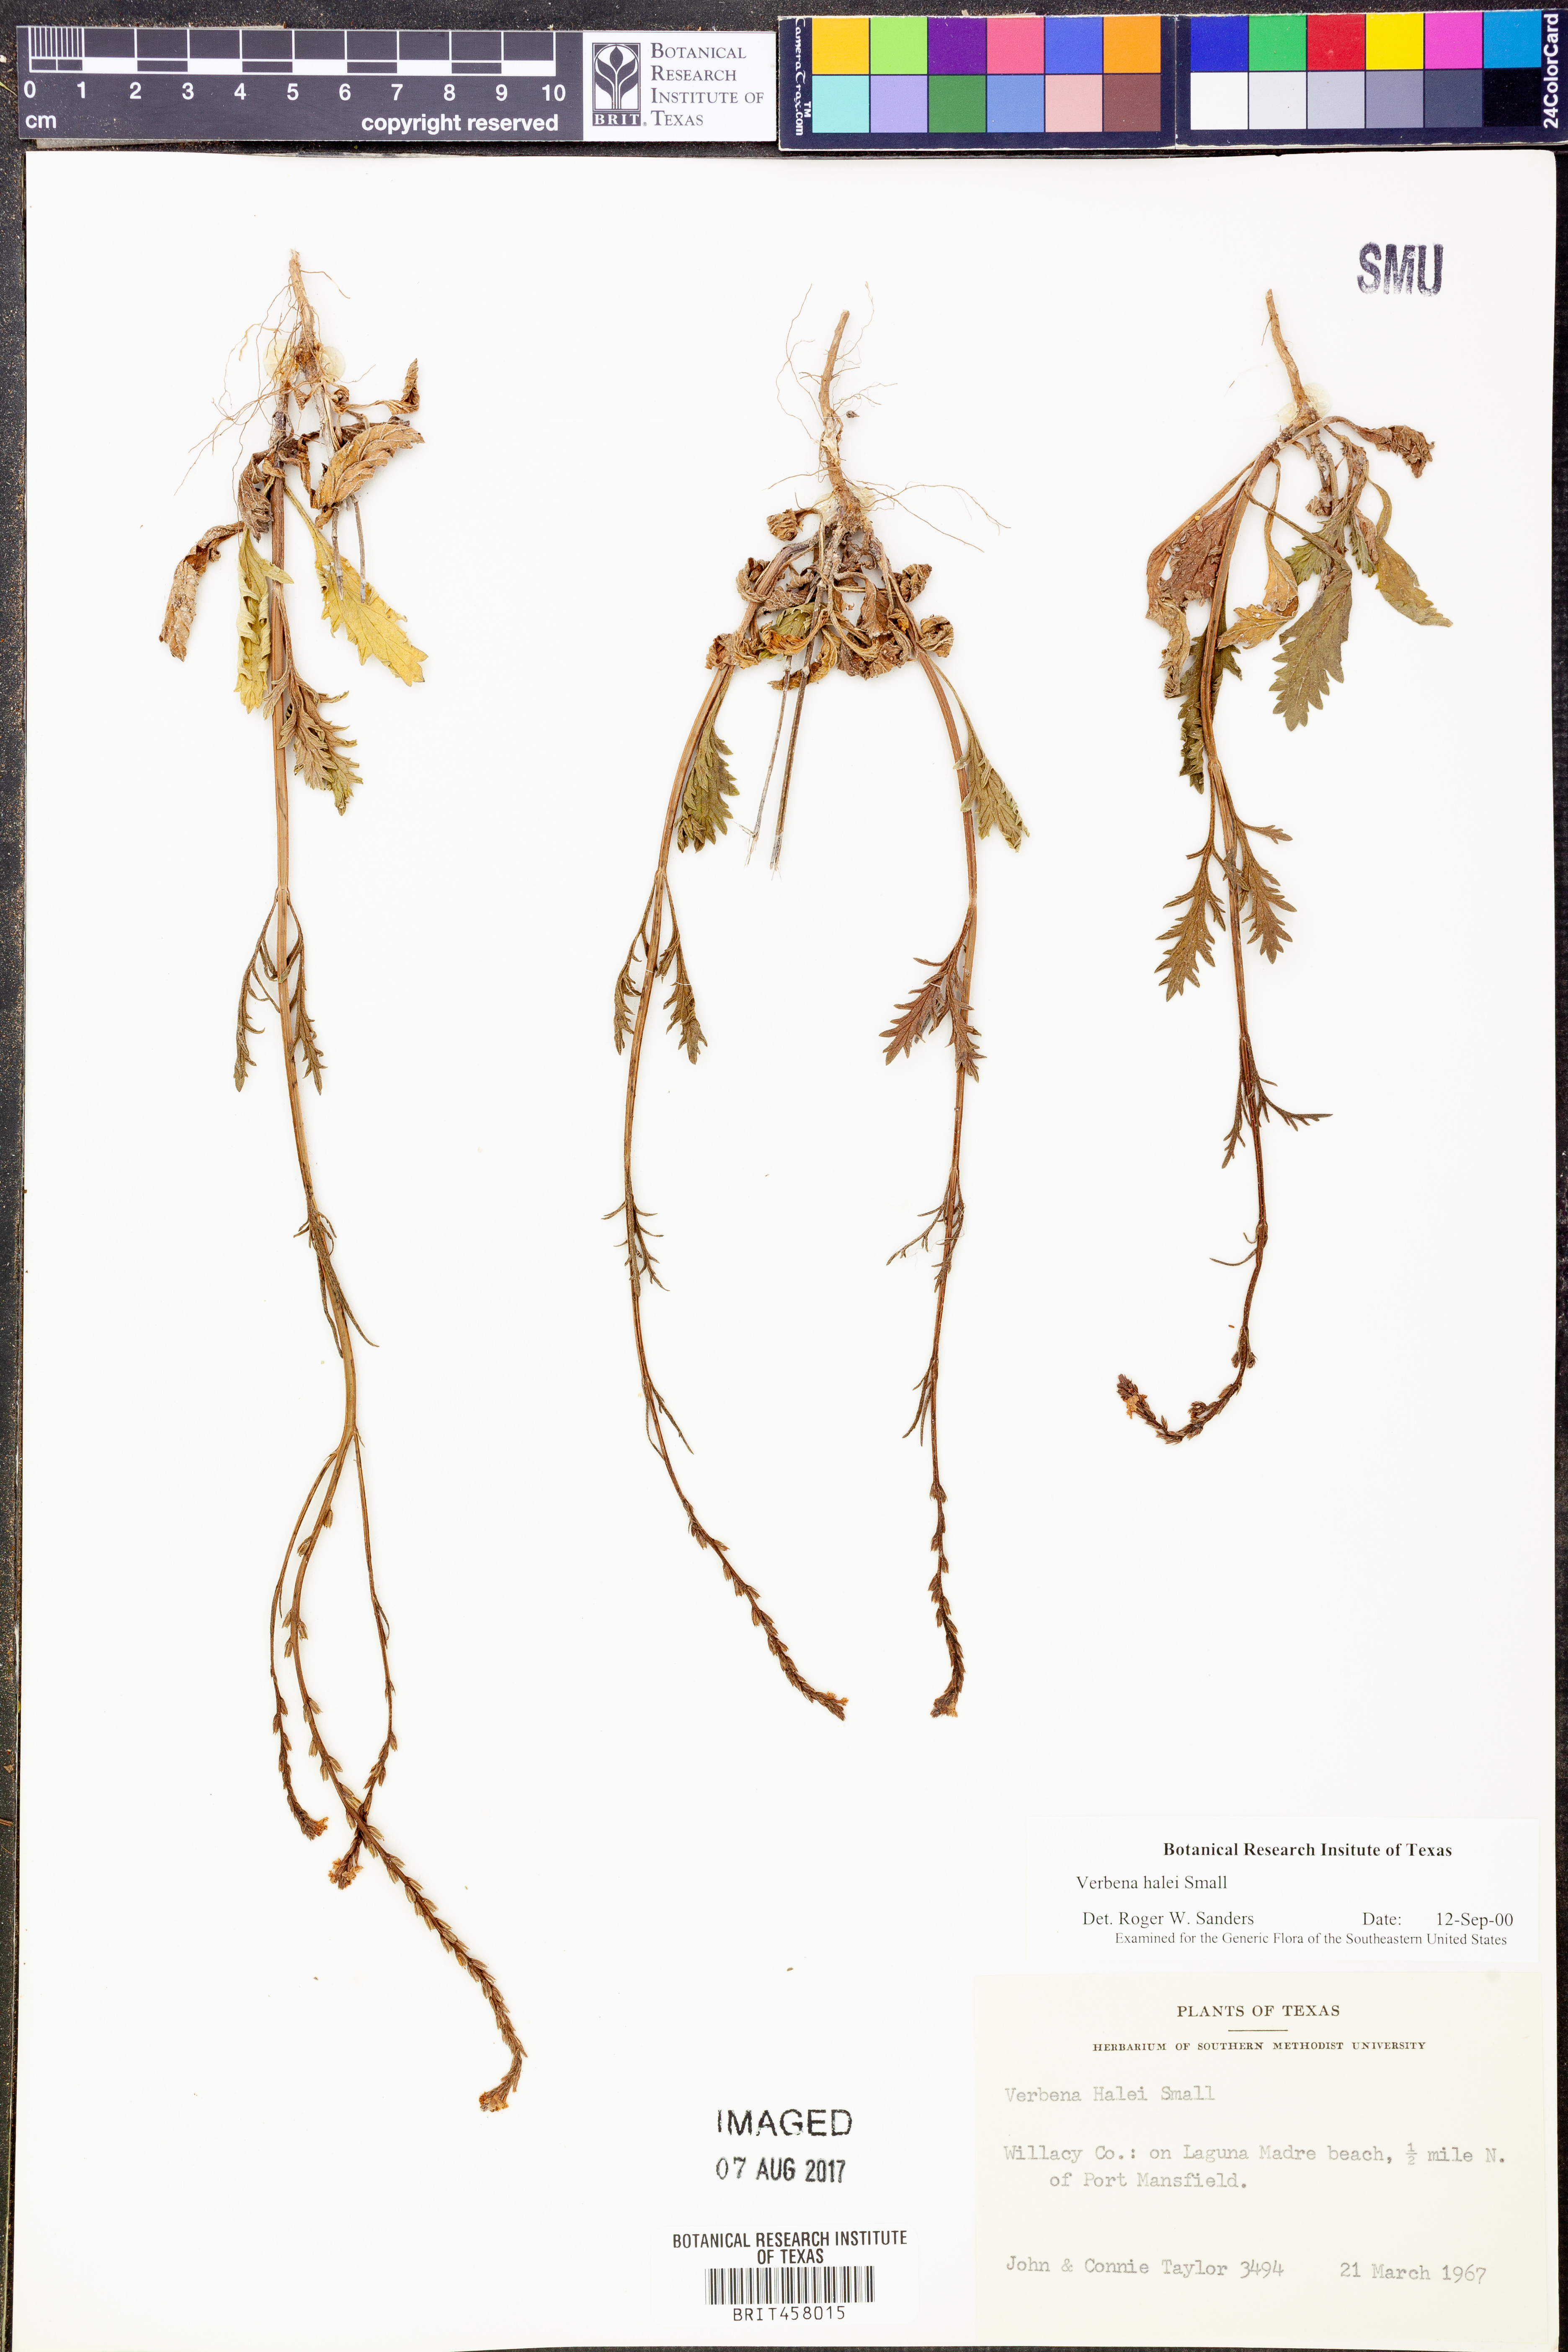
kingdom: Plantae
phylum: Tracheophyta
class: Magnoliopsida
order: Lamiales
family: Verbenaceae
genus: Verbena
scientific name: Verbena halei
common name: Texas vervain
